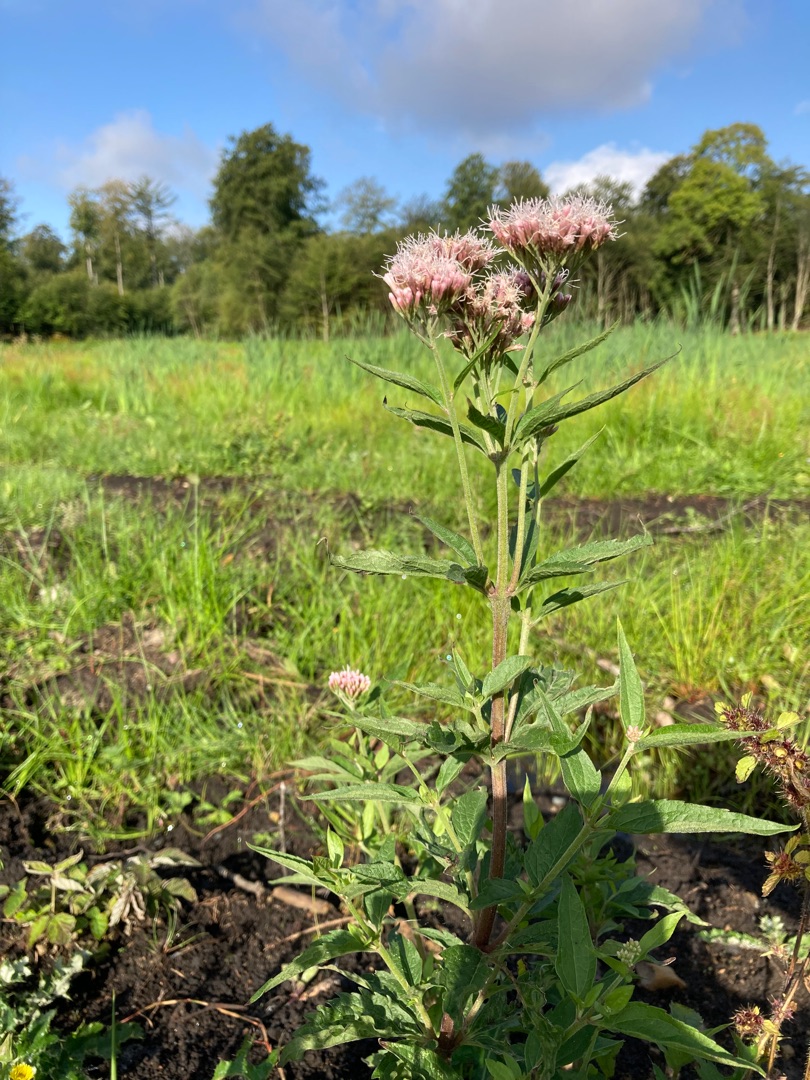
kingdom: Plantae
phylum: Tracheophyta
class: Magnoliopsida
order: Asterales
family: Asteraceae
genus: Eupatorium
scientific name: Eupatorium cannabinum
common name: Hjortetrøst
